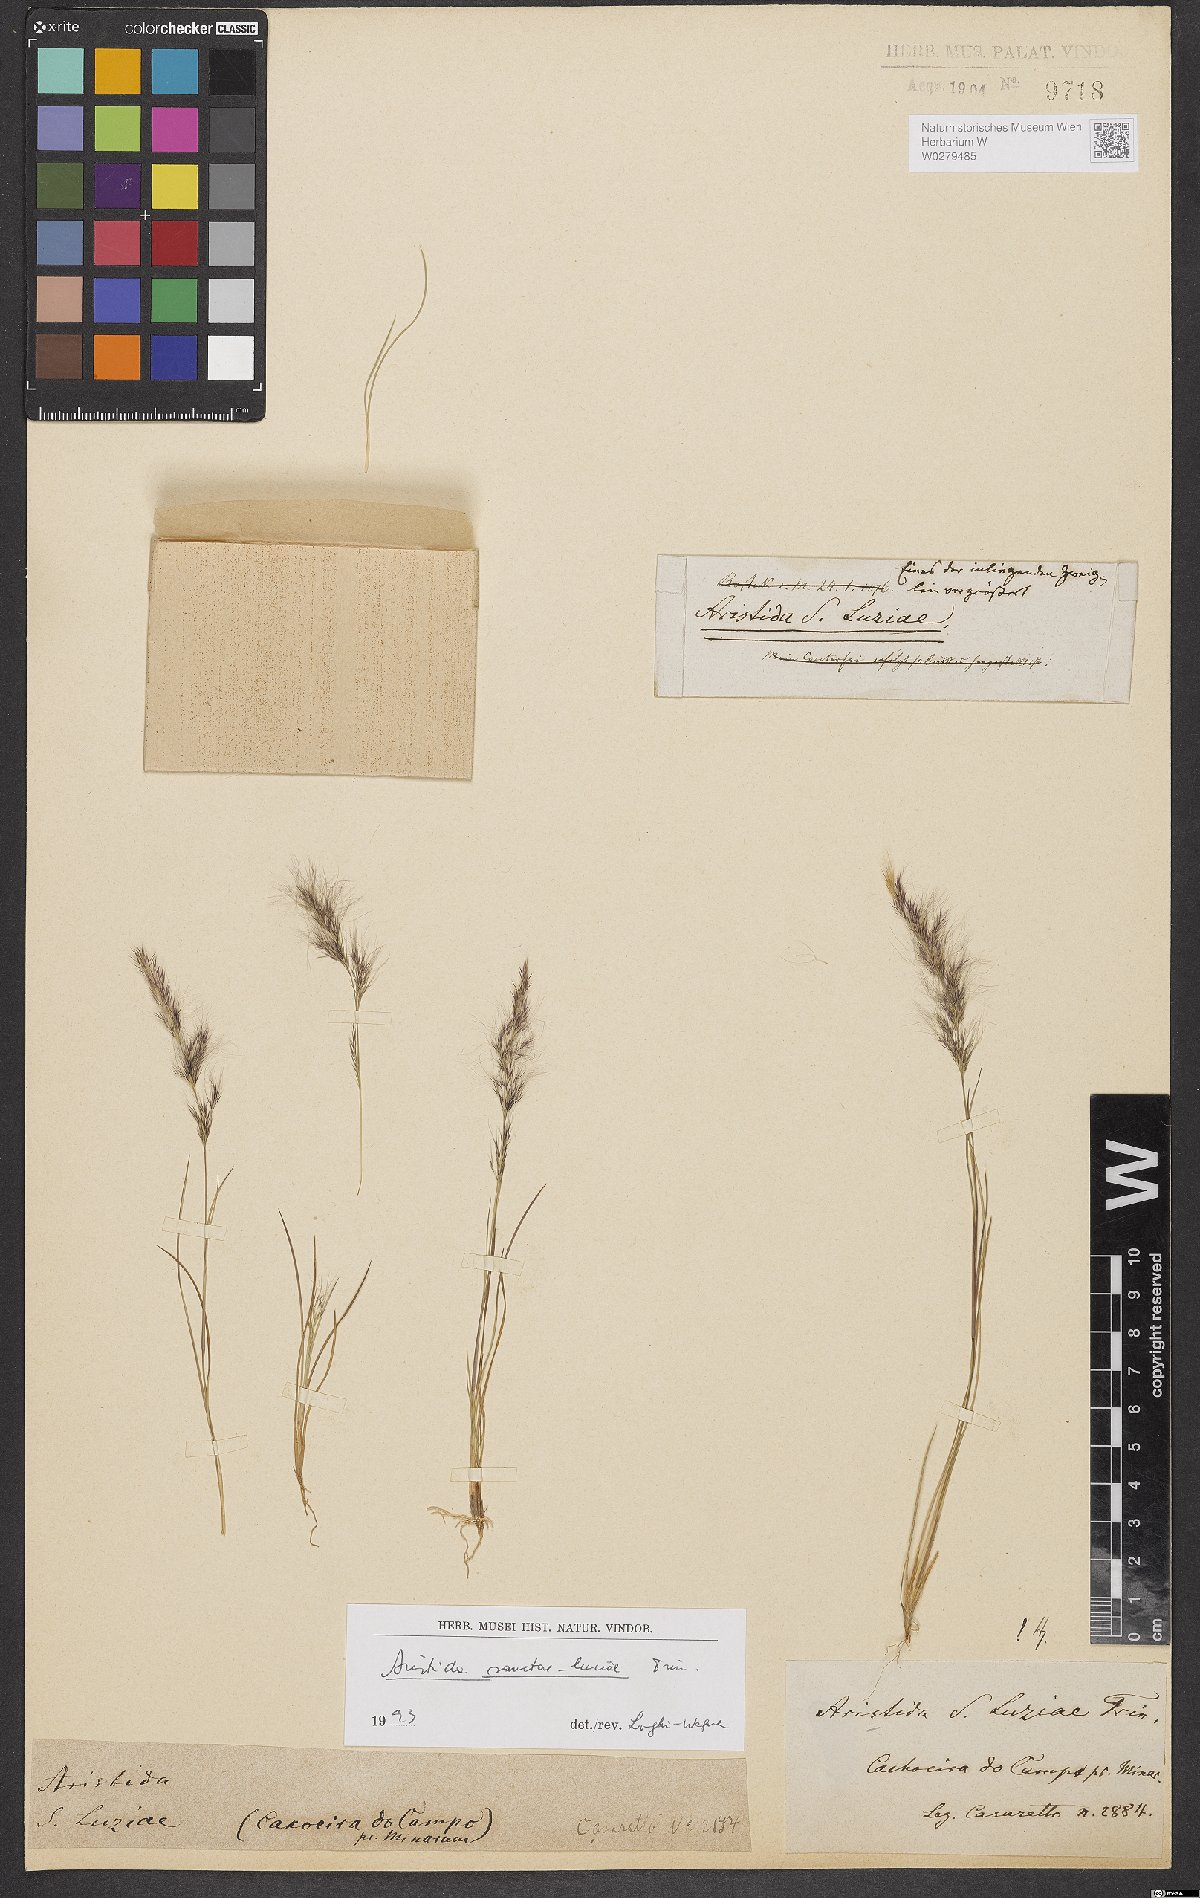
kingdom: Plantae
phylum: Tracheophyta
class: Liliopsida
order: Poales
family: Poaceae
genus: Aristida
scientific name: Aristida sanctae-luciae
